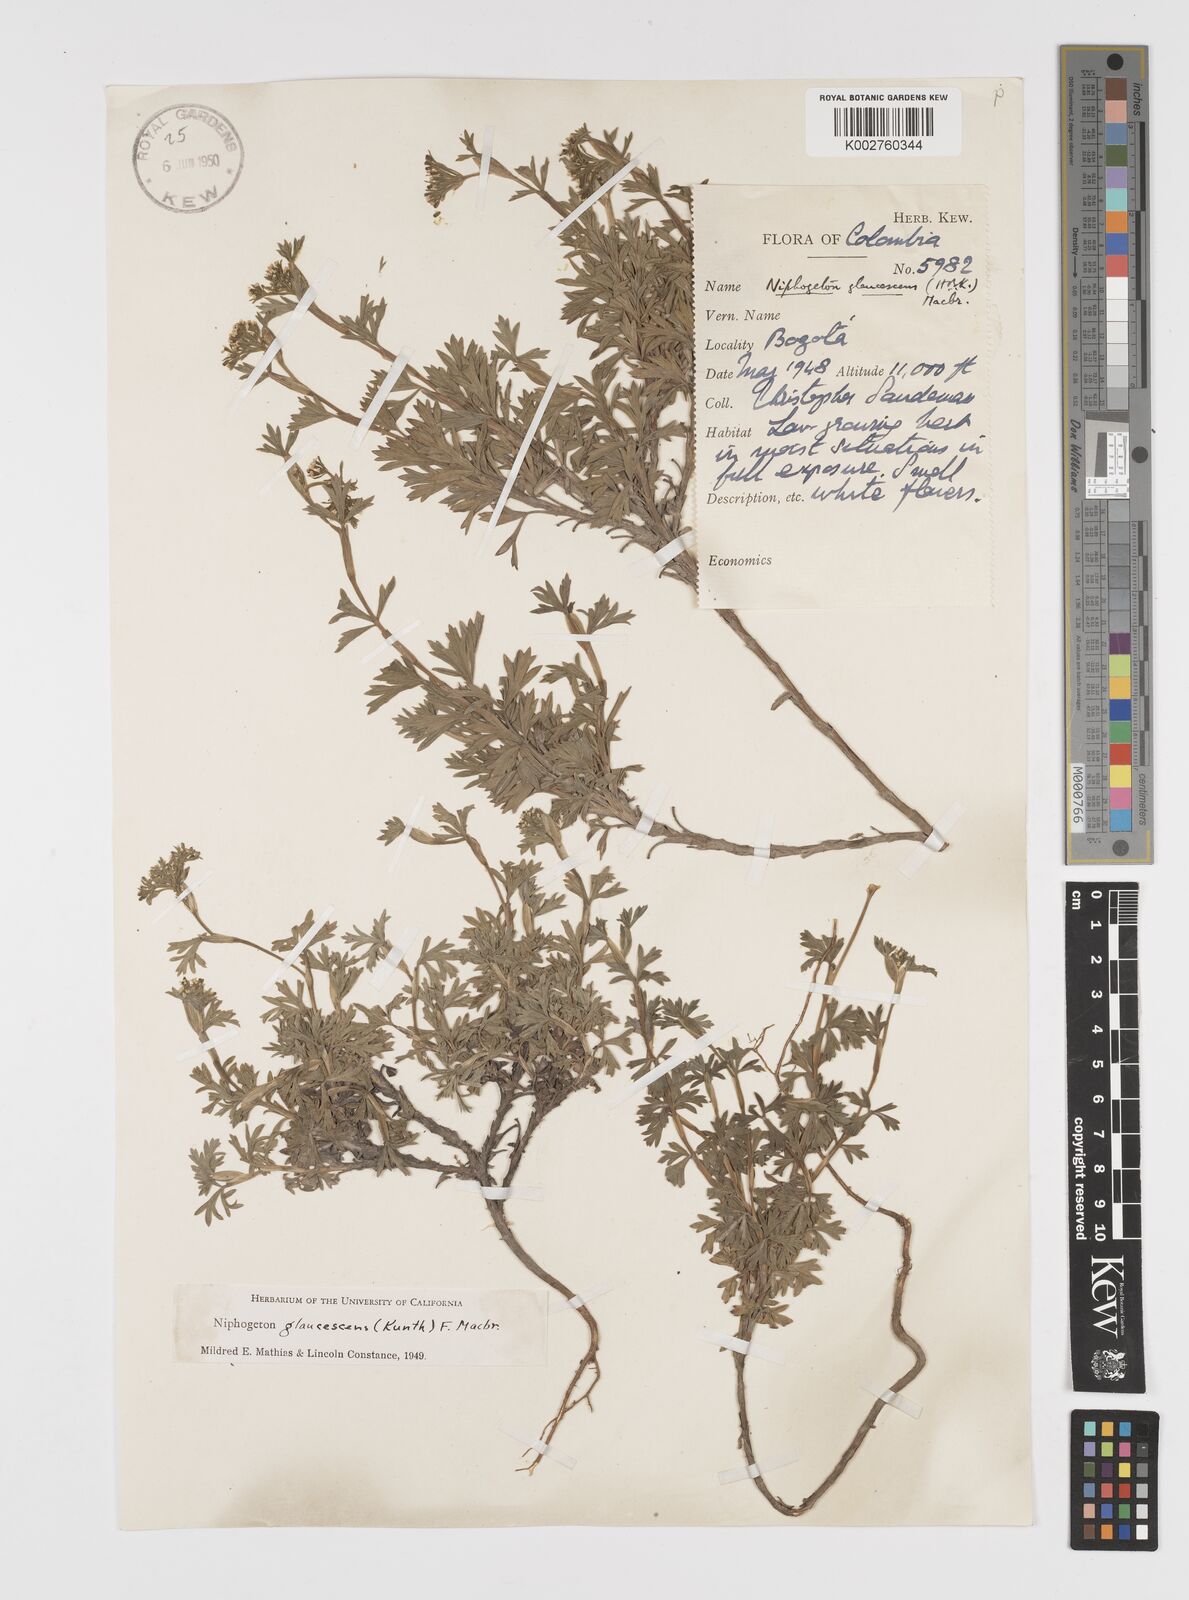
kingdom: Plantae
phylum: Tracheophyta
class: Magnoliopsida
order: Apiales
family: Apiaceae
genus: Niphogeton
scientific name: Niphogeton glaucescens
